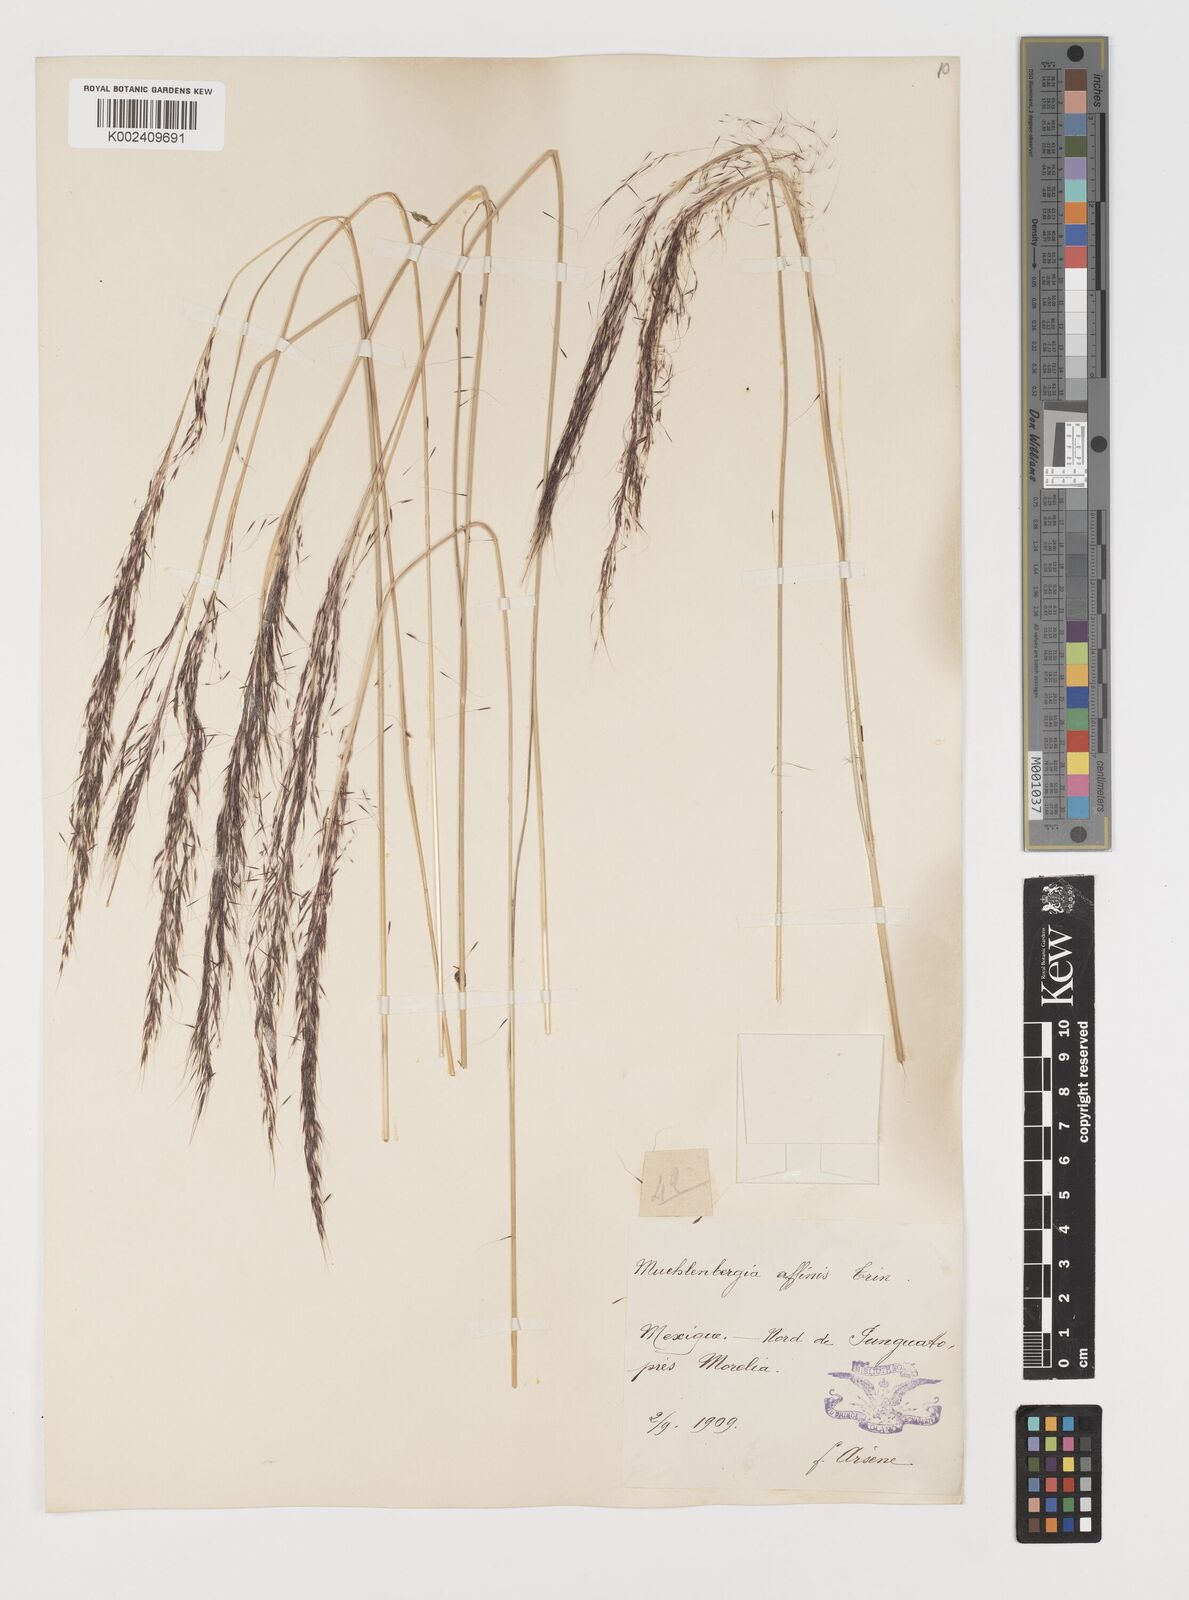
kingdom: Plantae
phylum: Tracheophyta
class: Liliopsida
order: Poales
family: Poaceae
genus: Muhlenbergia
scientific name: Muhlenbergia rigida
